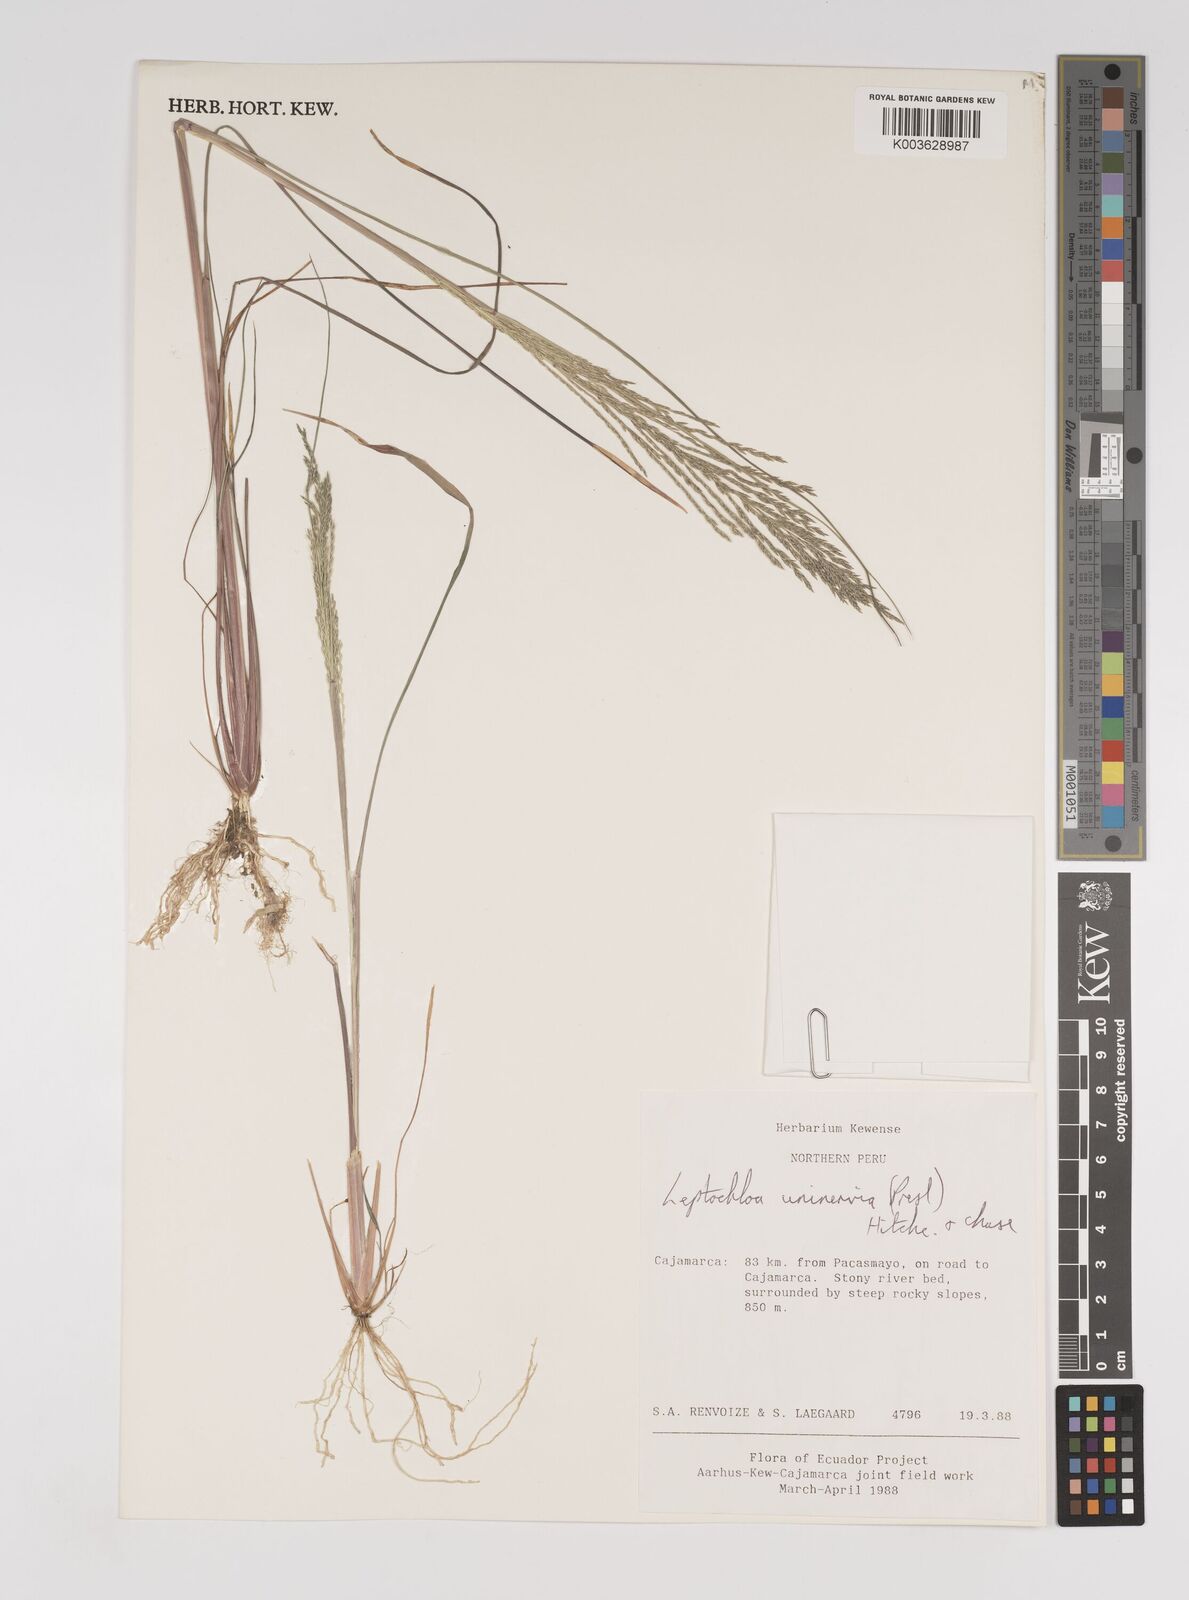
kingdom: Plantae
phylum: Tracheophyta
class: Liliopsida
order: Poales
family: Poaceae
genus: Diplachne
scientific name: Diplachne fusca
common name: Brown beetle grass
